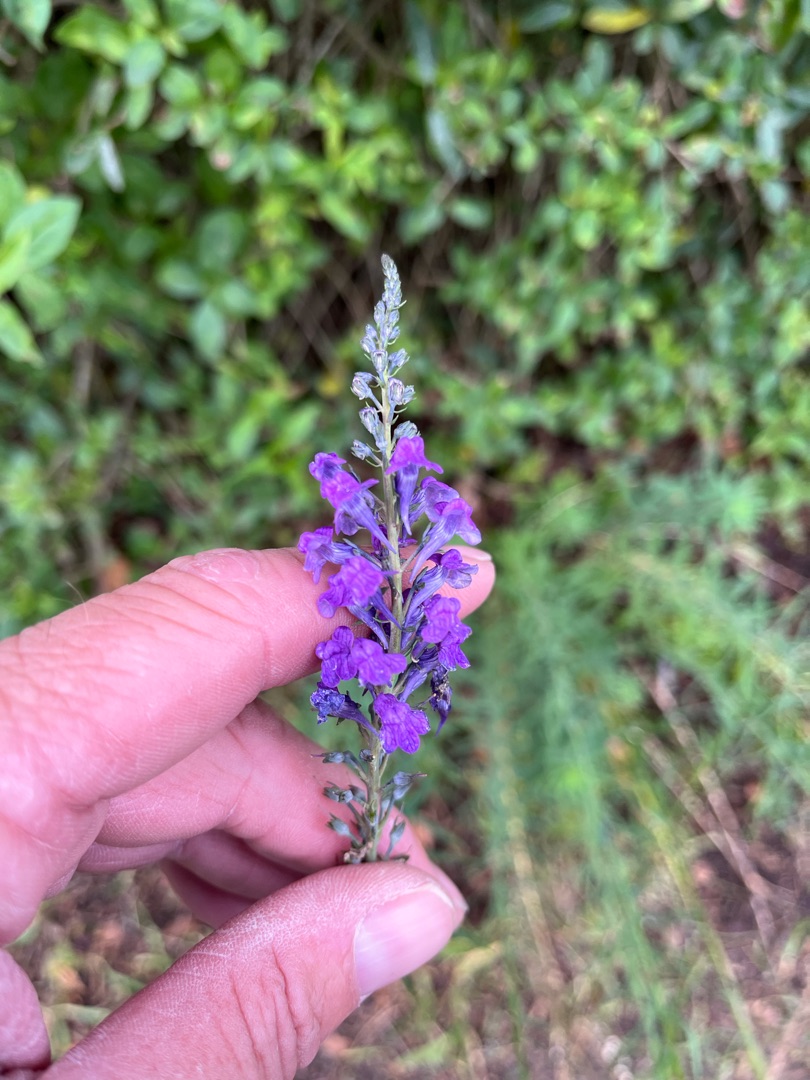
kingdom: Plantae
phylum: Tracheophyta
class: Magnoliopsida
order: Lamiales
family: Plantaginaceae
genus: Linaria
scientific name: Linaria purpurea
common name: Purpur-torskemund
